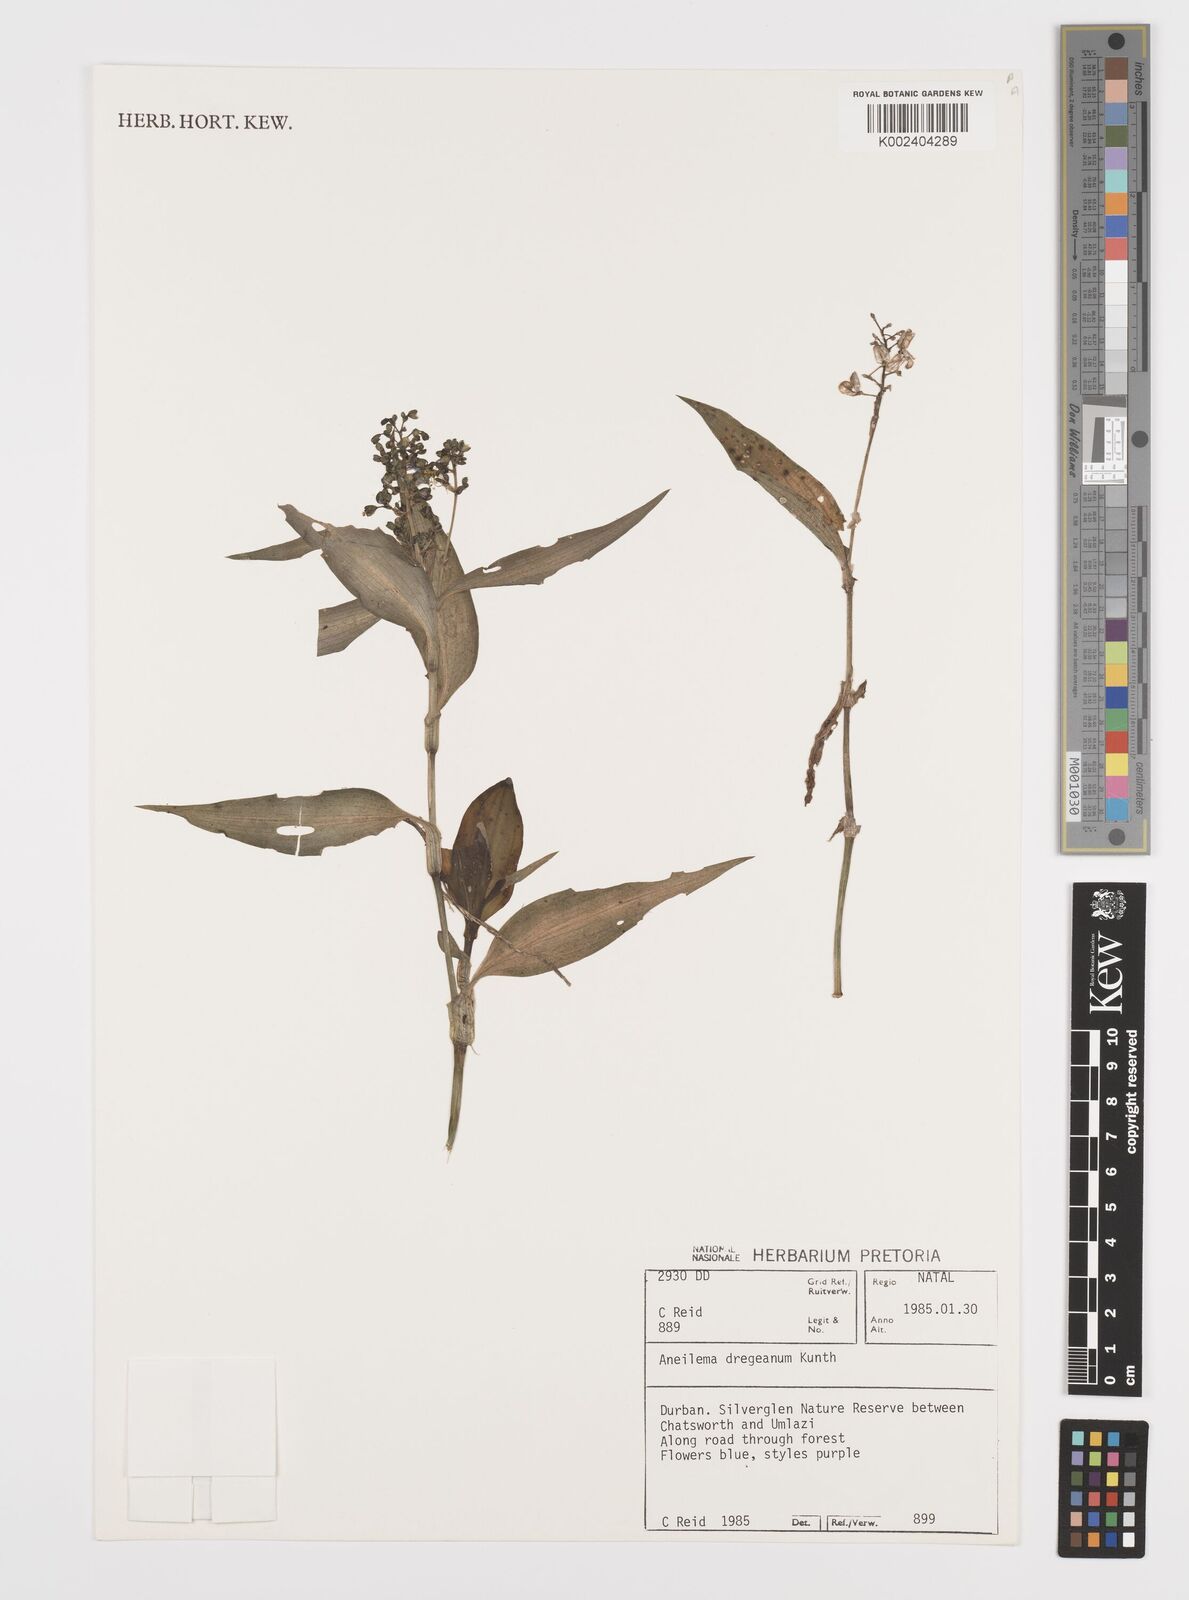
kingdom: Plantae
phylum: Tracheophyta
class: Liliopsida
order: Commelinales
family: Commelinaceae
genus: Aneilema
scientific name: Aneilema dregeanum
